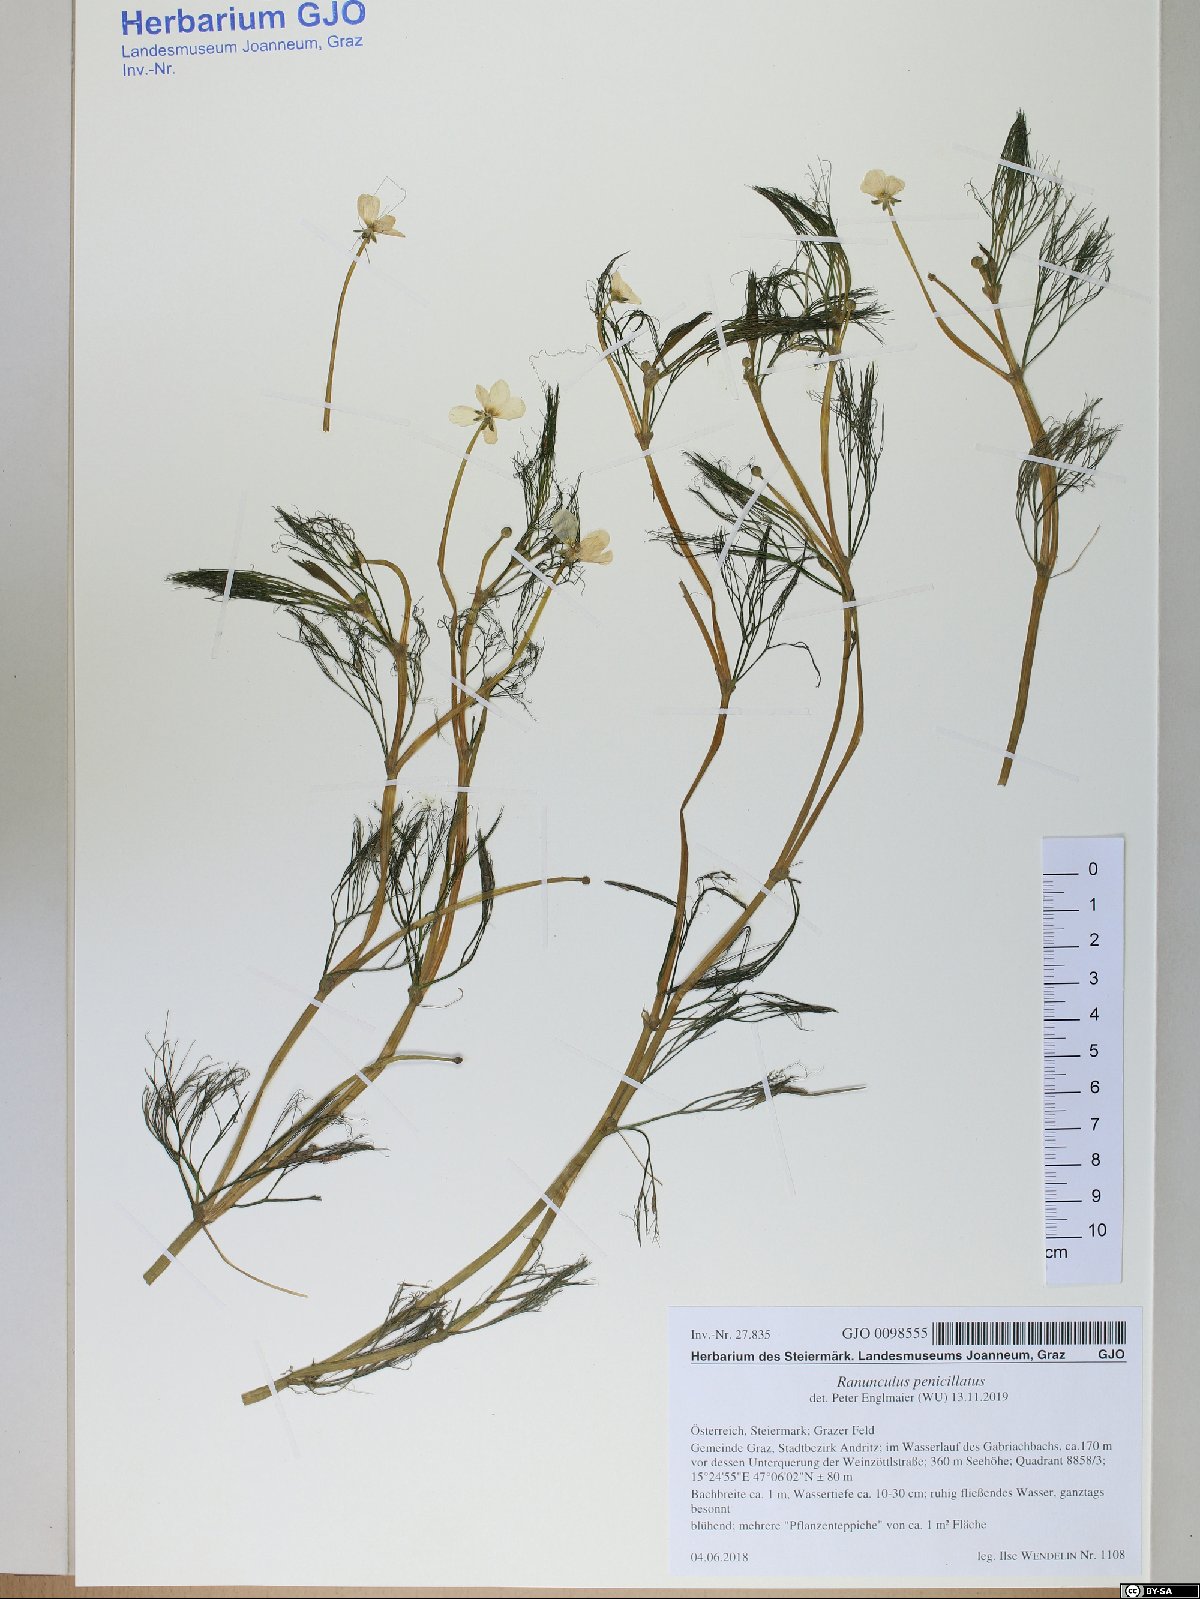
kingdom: Plantae
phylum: Tracheophyta
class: Magnoliopsida
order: Ranunculales
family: Ranunculaceae
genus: Ranunculus
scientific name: Ranunculus penicillatus
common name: Stream water-crowfoot
